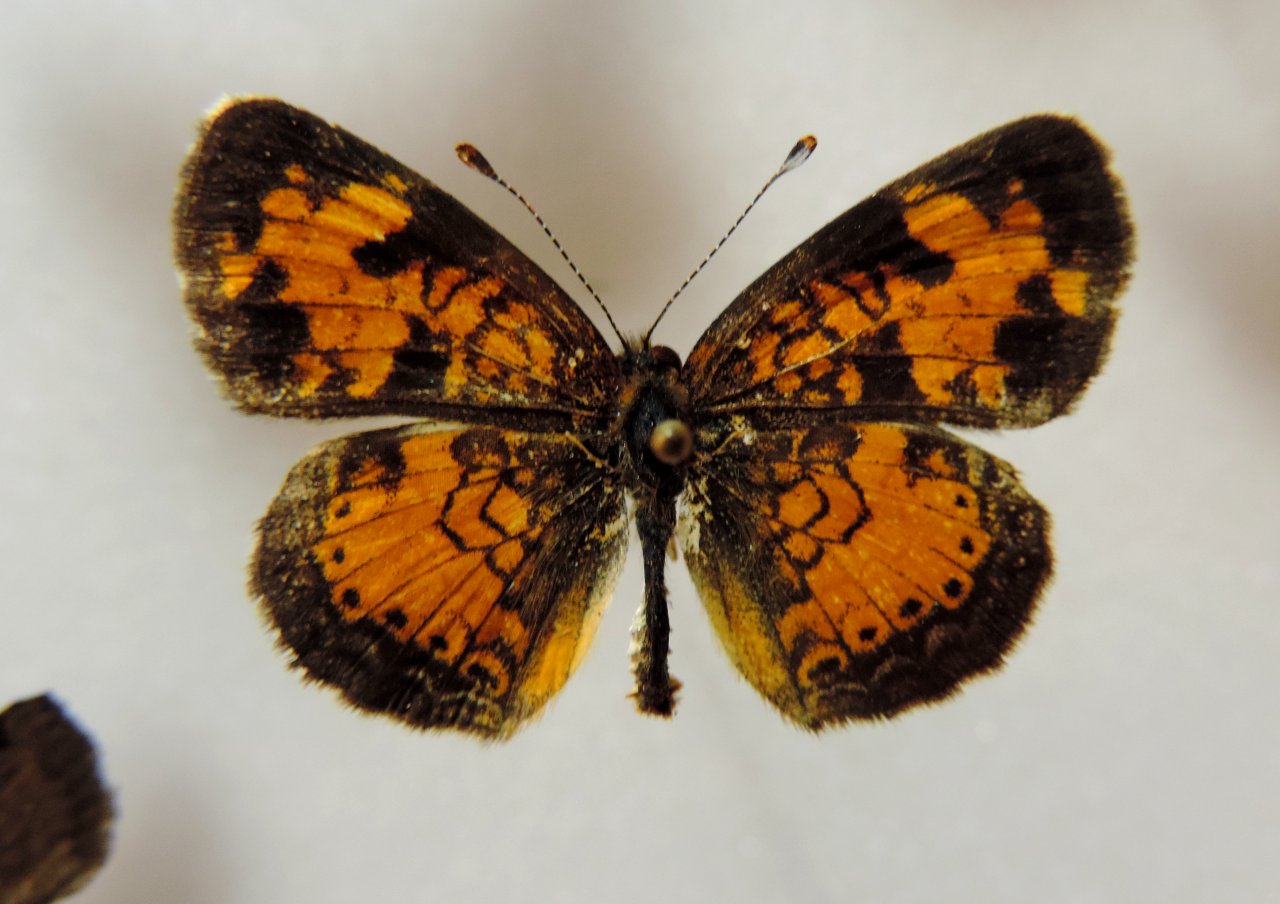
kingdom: Animalia
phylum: Arthropoda
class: Insecta
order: Lepidoptera
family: Nymphalidae
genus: Phyciodes
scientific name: Phyciodes tharos
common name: Northern Crescent
